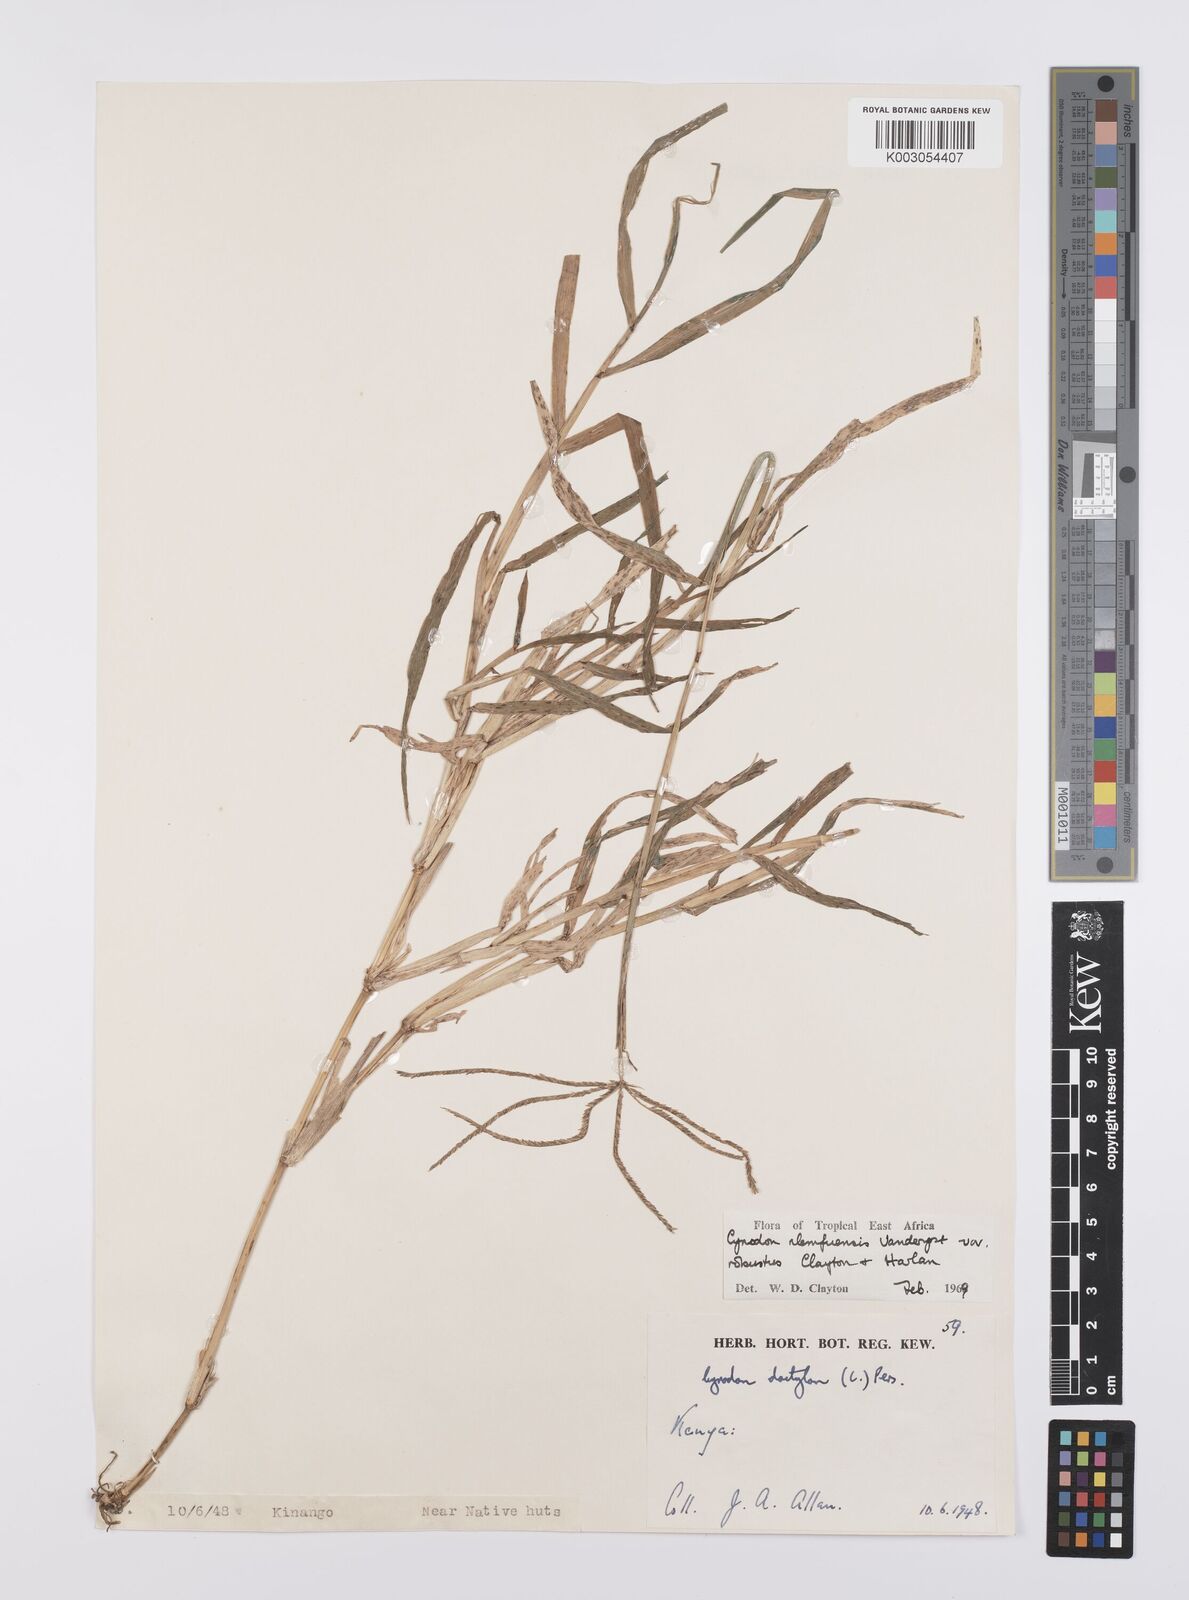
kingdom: Plantae
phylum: Tracheophyta
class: Liliopsida
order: Poales
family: Poaceae
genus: Cynodon
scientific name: Cynodon nlemfuensis
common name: African bermudagrass
